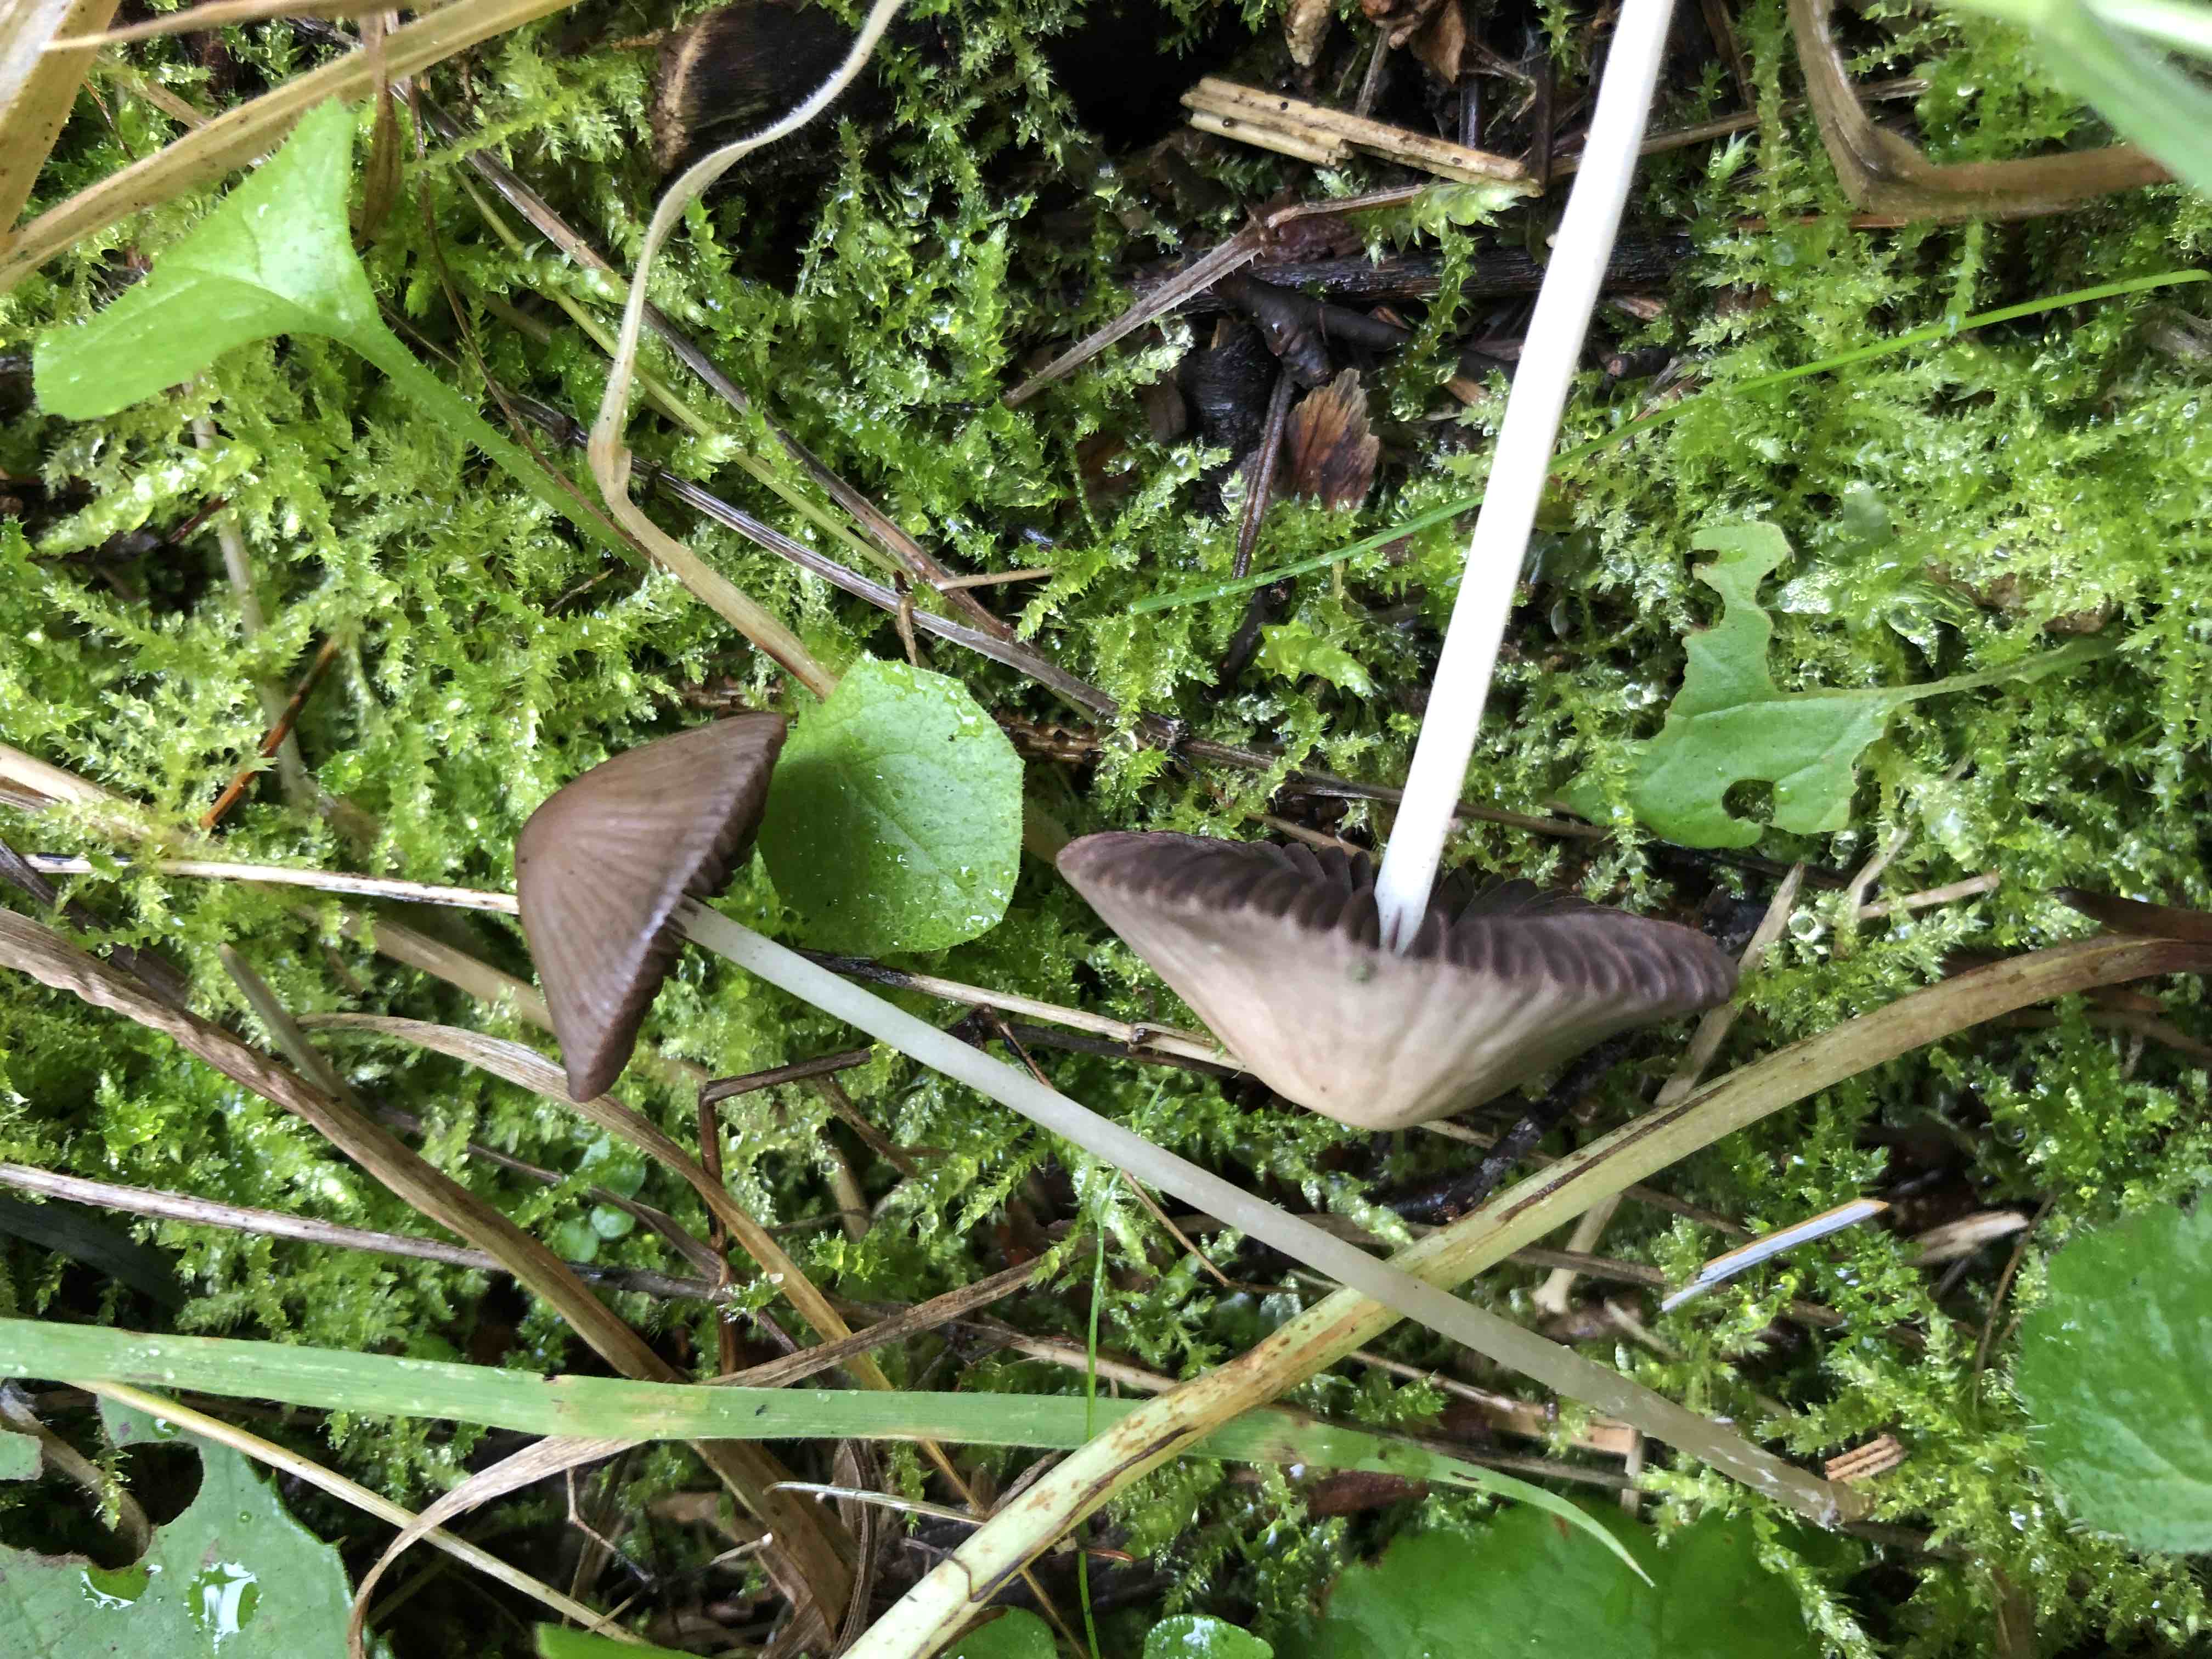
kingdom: Fungi
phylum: Basidiomycota
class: Agaricomycetes
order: Agaricales
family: Psathyrellaceae
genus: Psathyrella
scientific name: Psathyrella
